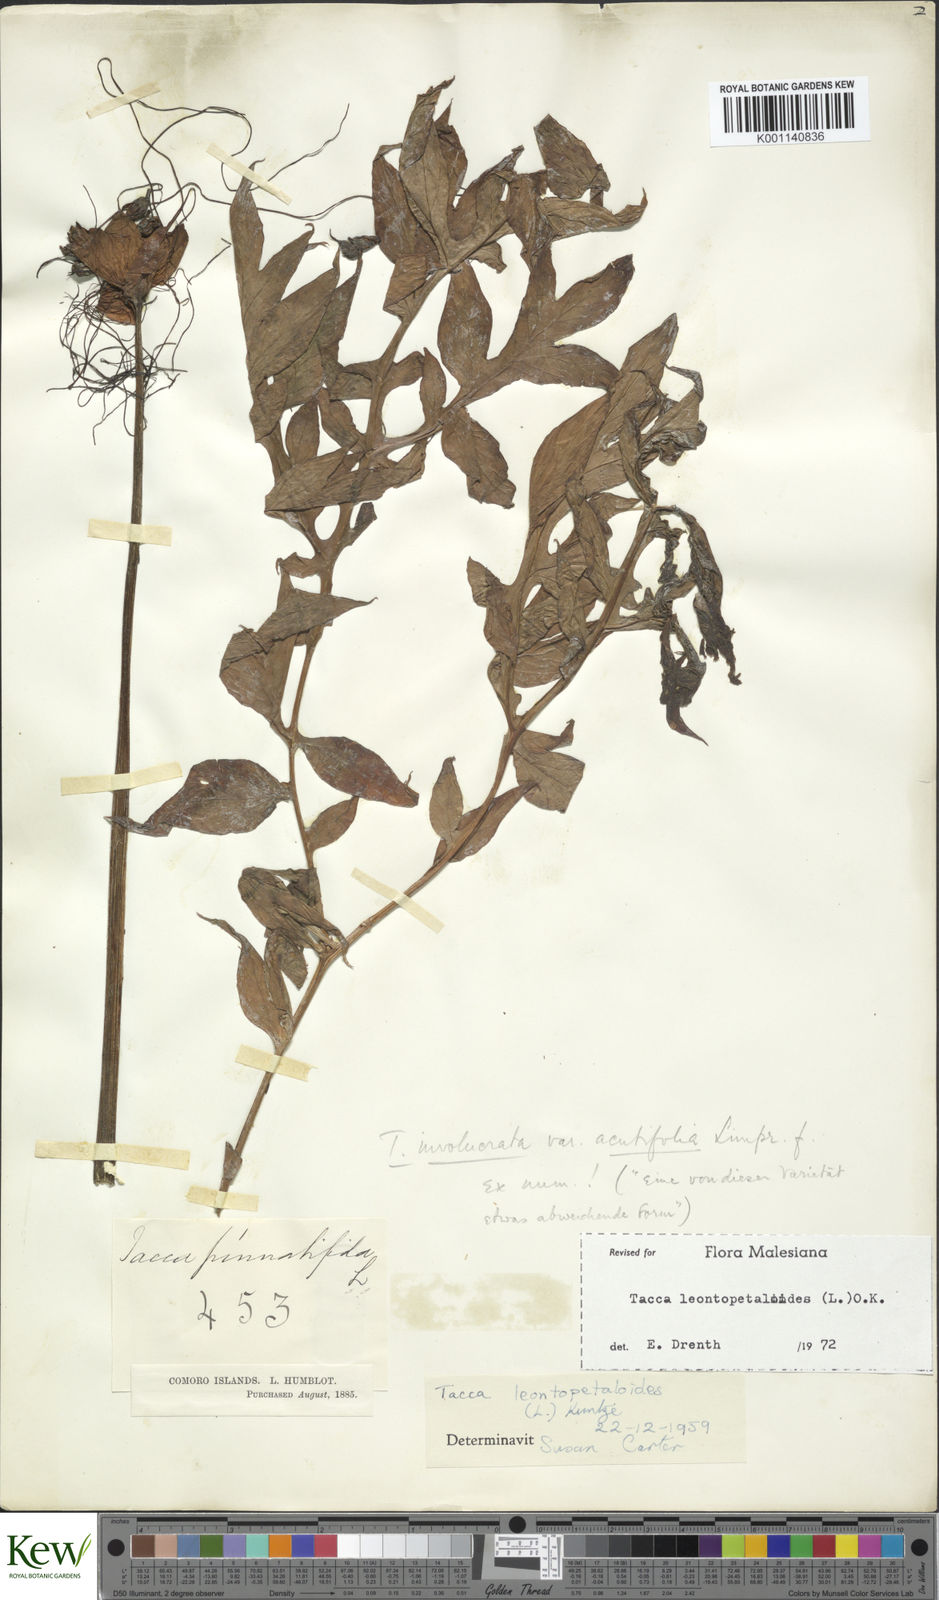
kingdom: Plantae
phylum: Tracheophyta
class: Liliopsida
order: Dioscoreales
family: Dioscoreaceae
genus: Tacca
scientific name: Tacca leontopetaloides
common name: Arrowroot
